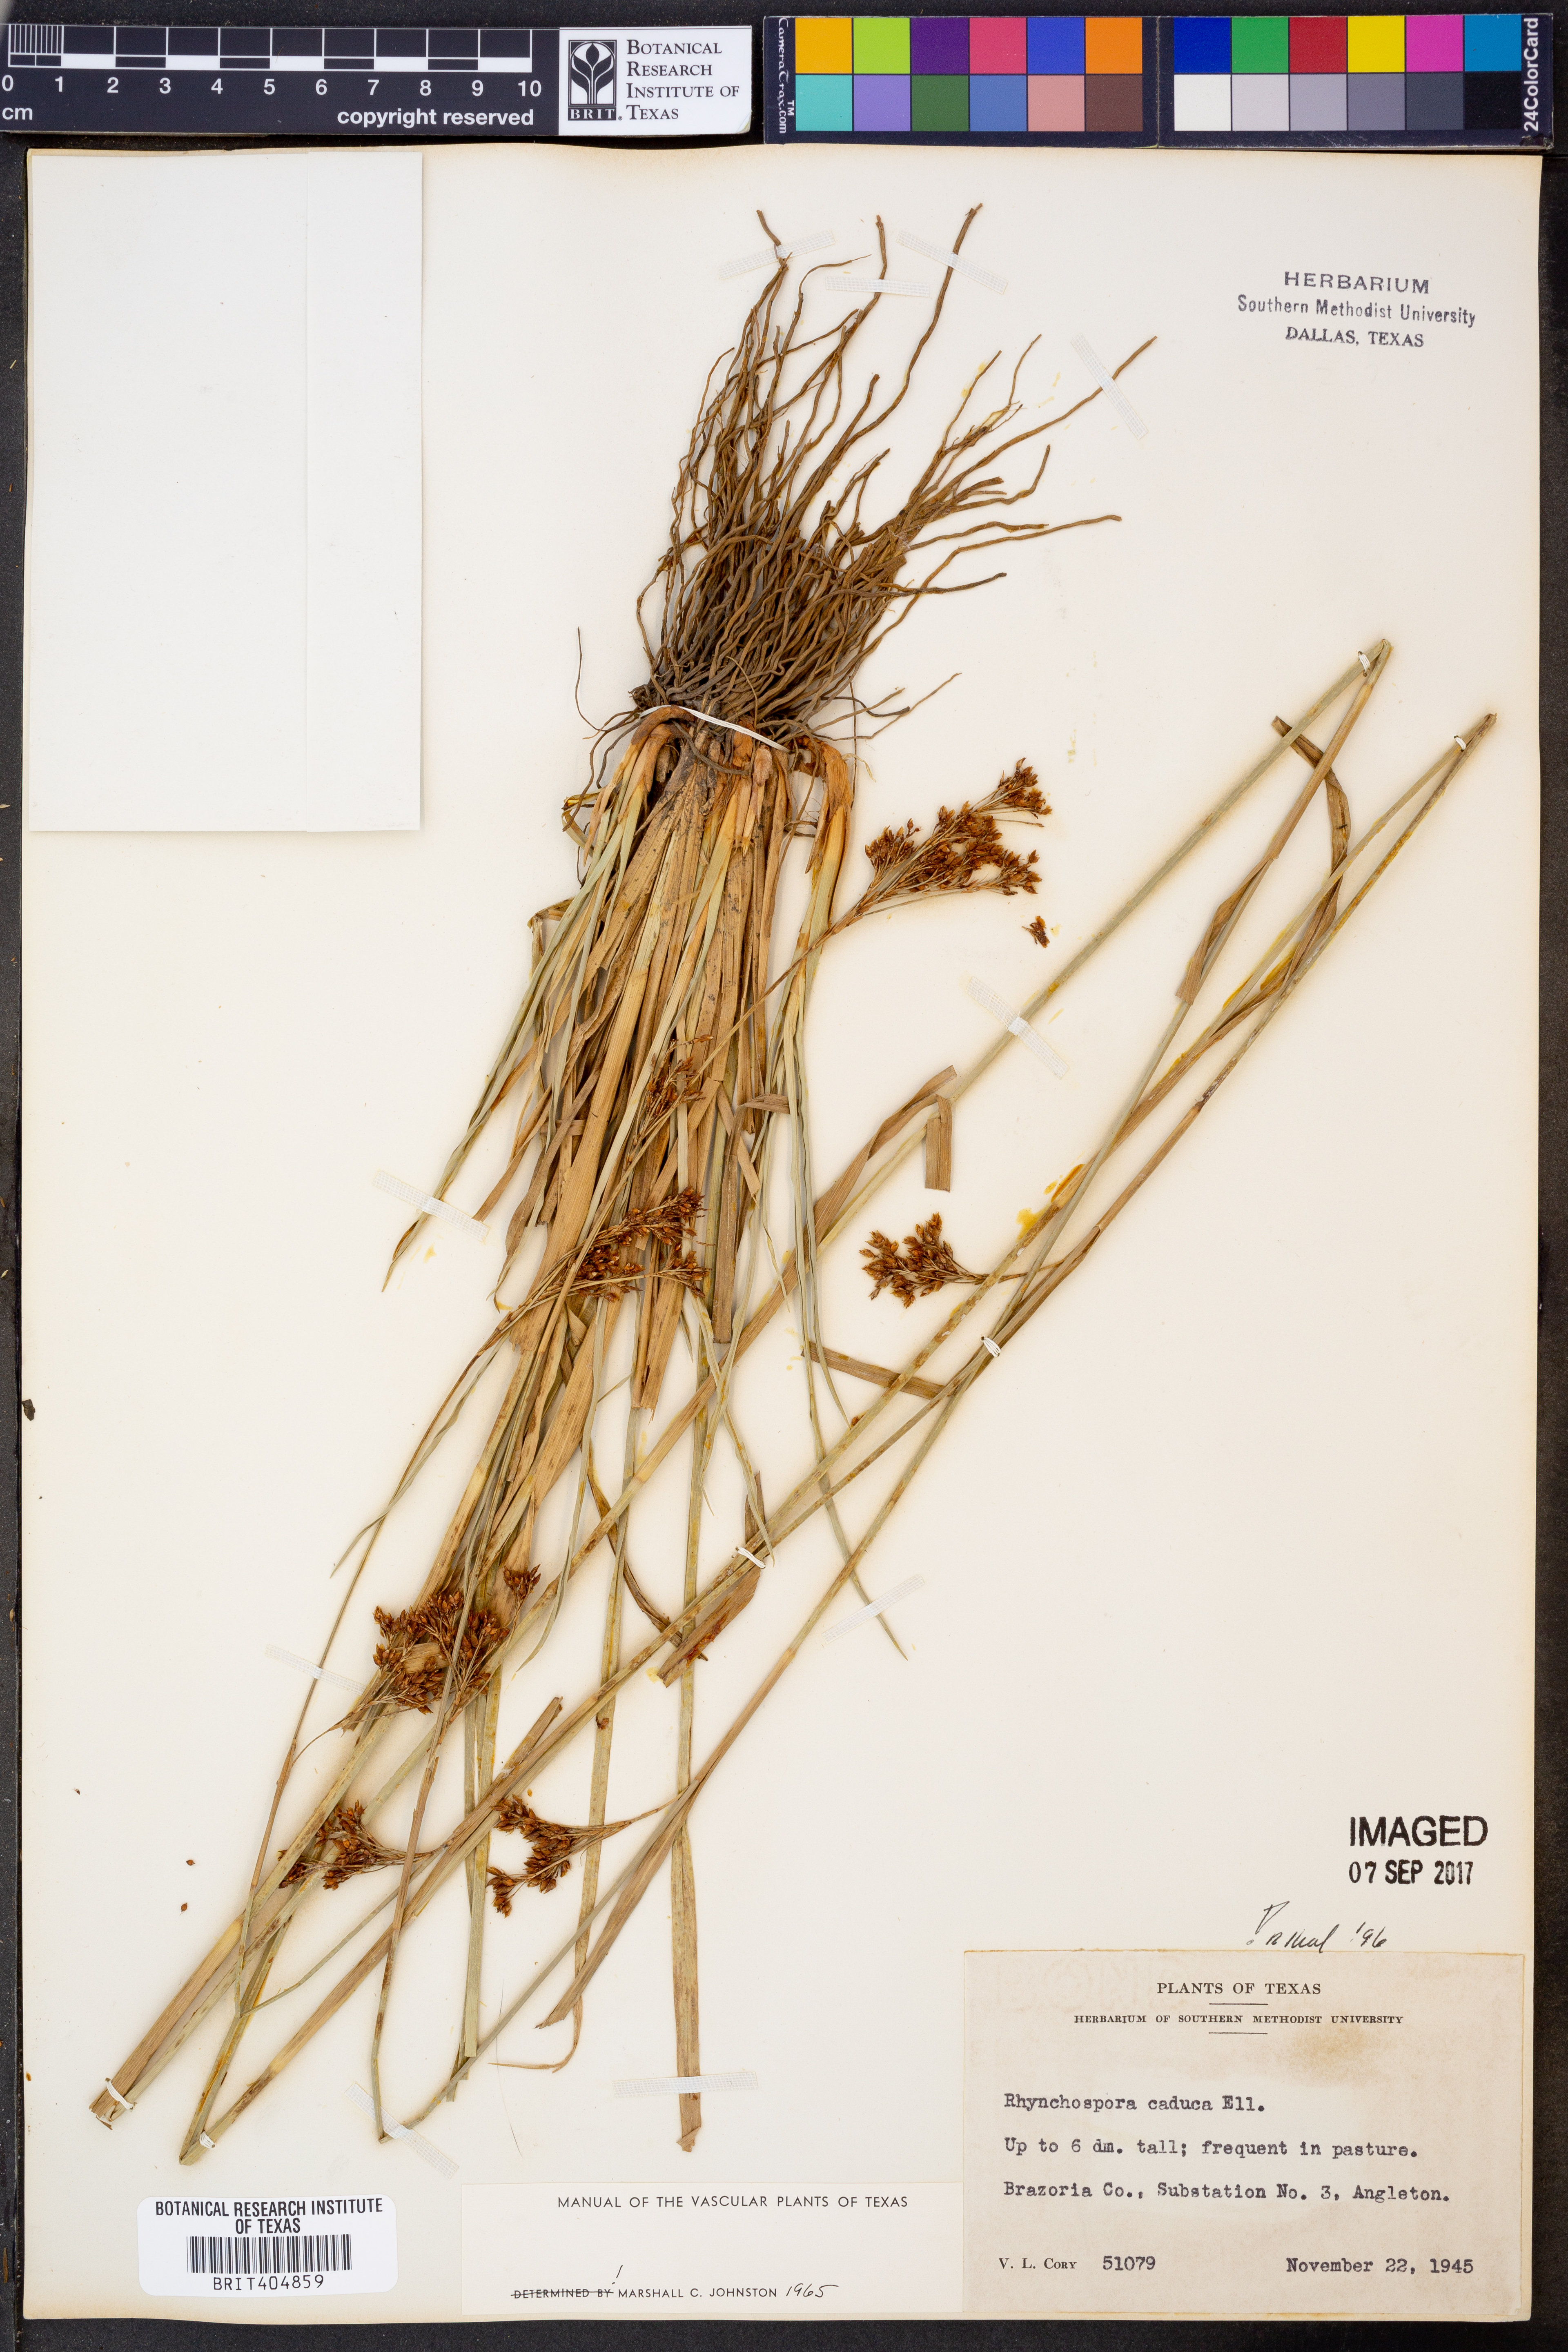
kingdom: Plantae
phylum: Tracheophyta
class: Liliopsida
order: Poales
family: Cyperaceae
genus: Rhynchospora
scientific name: Rhynchospora caduca
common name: Anglestem beaksedge
